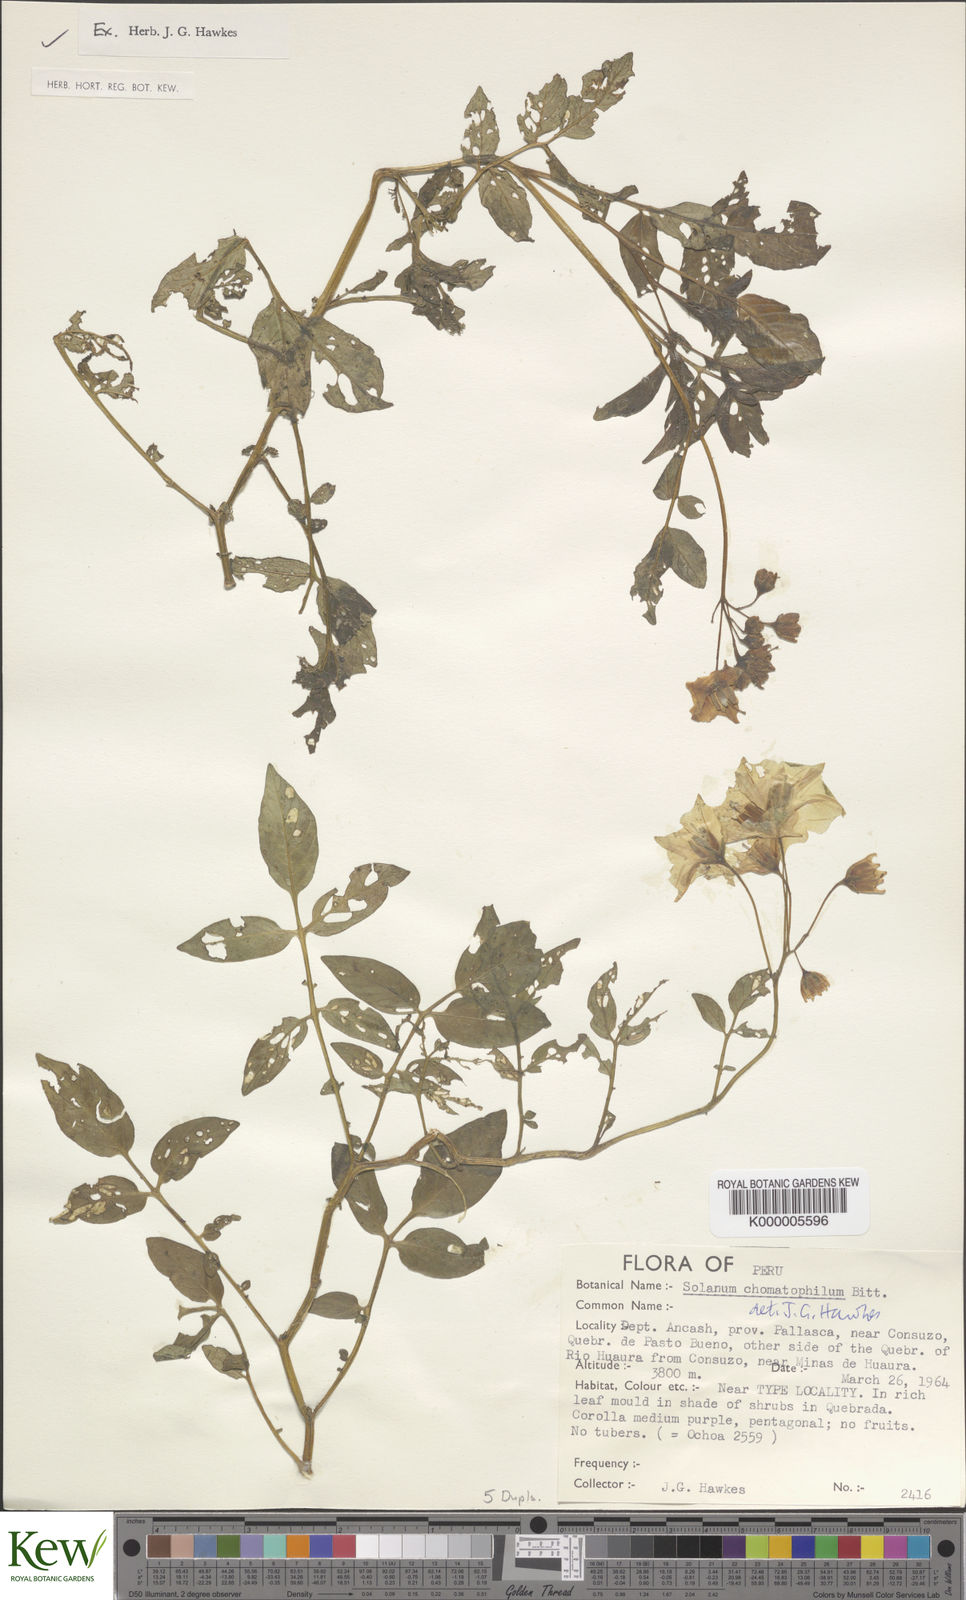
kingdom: Plantae
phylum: Tracheophyta
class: Magnoliopsida
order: Solanales
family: Solanaceae
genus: Solanum
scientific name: Solanum chomatophilum
